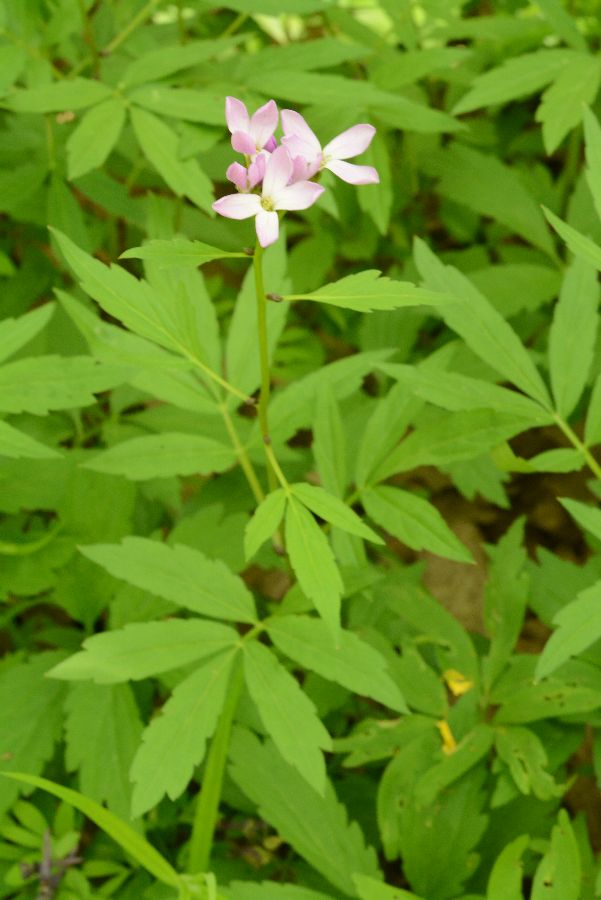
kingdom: Animalia
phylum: Mollusca
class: Bivalvia
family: Protocuspidariidae
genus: Dentaria
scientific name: Dentaria
